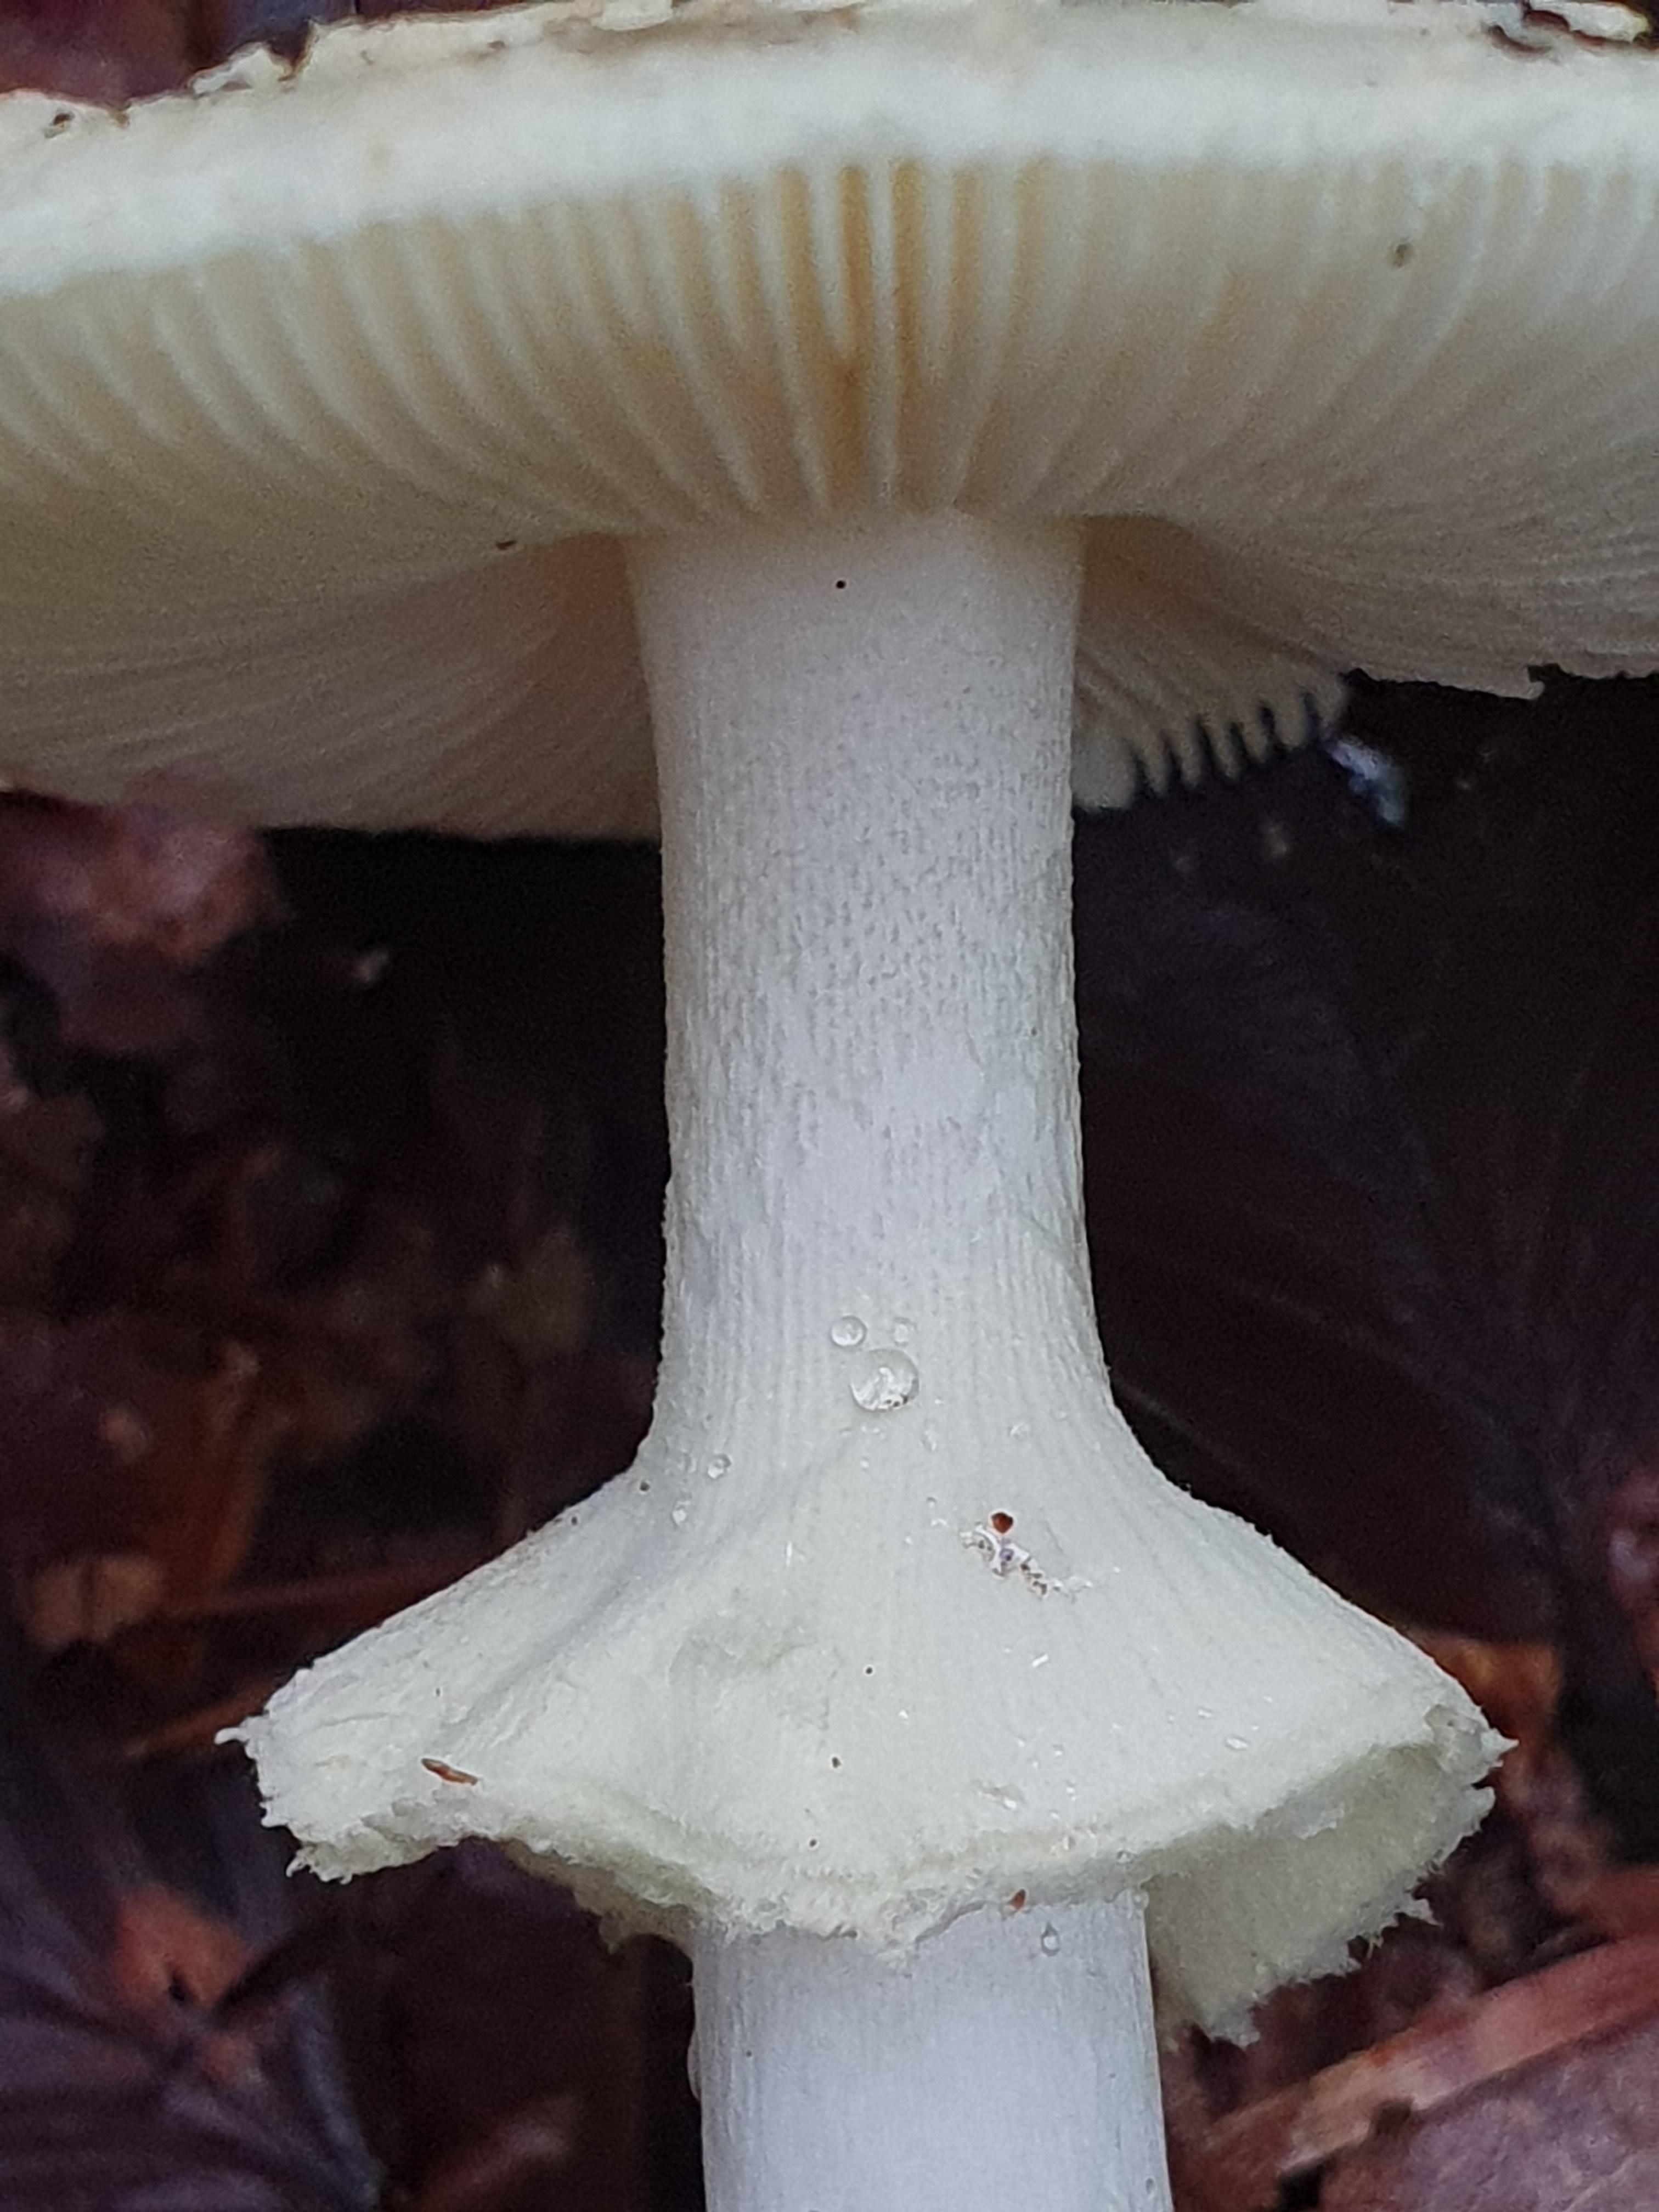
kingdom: Fungi
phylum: Basidiomycota
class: Agaricomycetes
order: Agaricales
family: Amanitaceae
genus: Amanita
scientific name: Amanita citrina
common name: kugleknoldet fluesvamp
